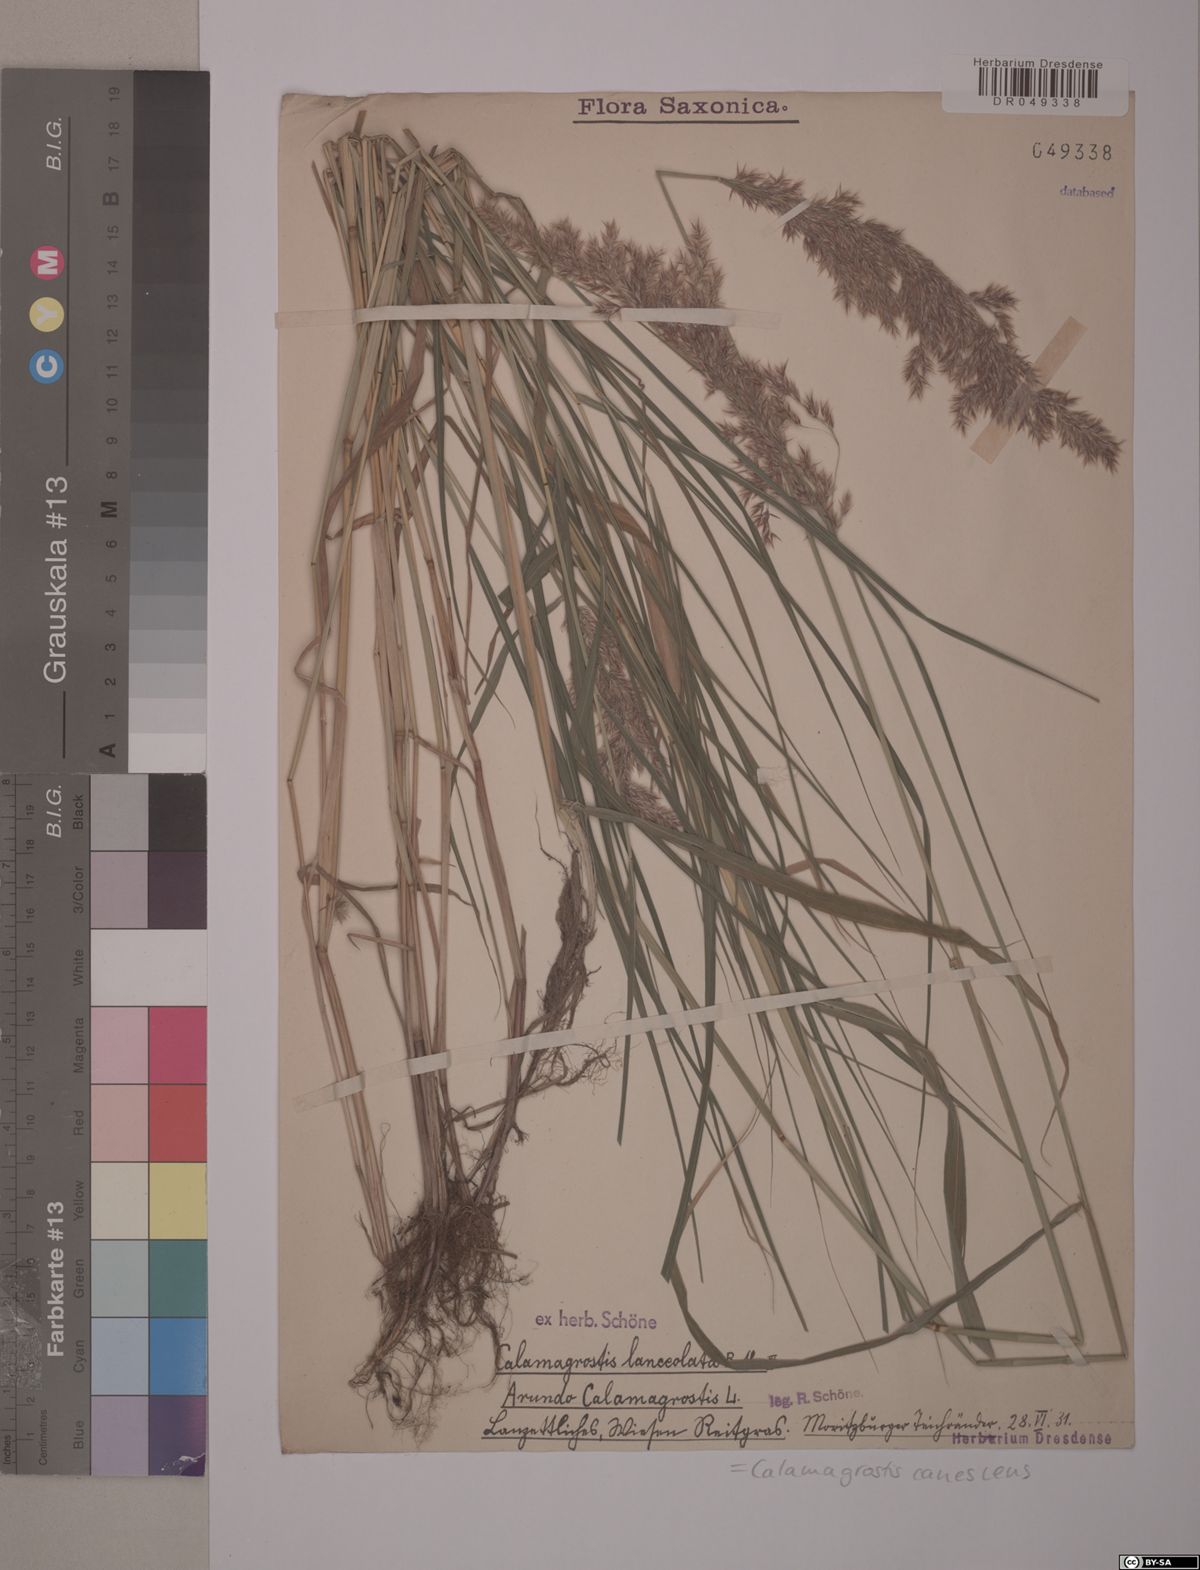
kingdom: Plantae
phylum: Tracheophyta
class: Liliopsida
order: Poales
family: Poaceae
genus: Calamagrostis
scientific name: Calamagrostis canescens
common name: Purple small-reed
